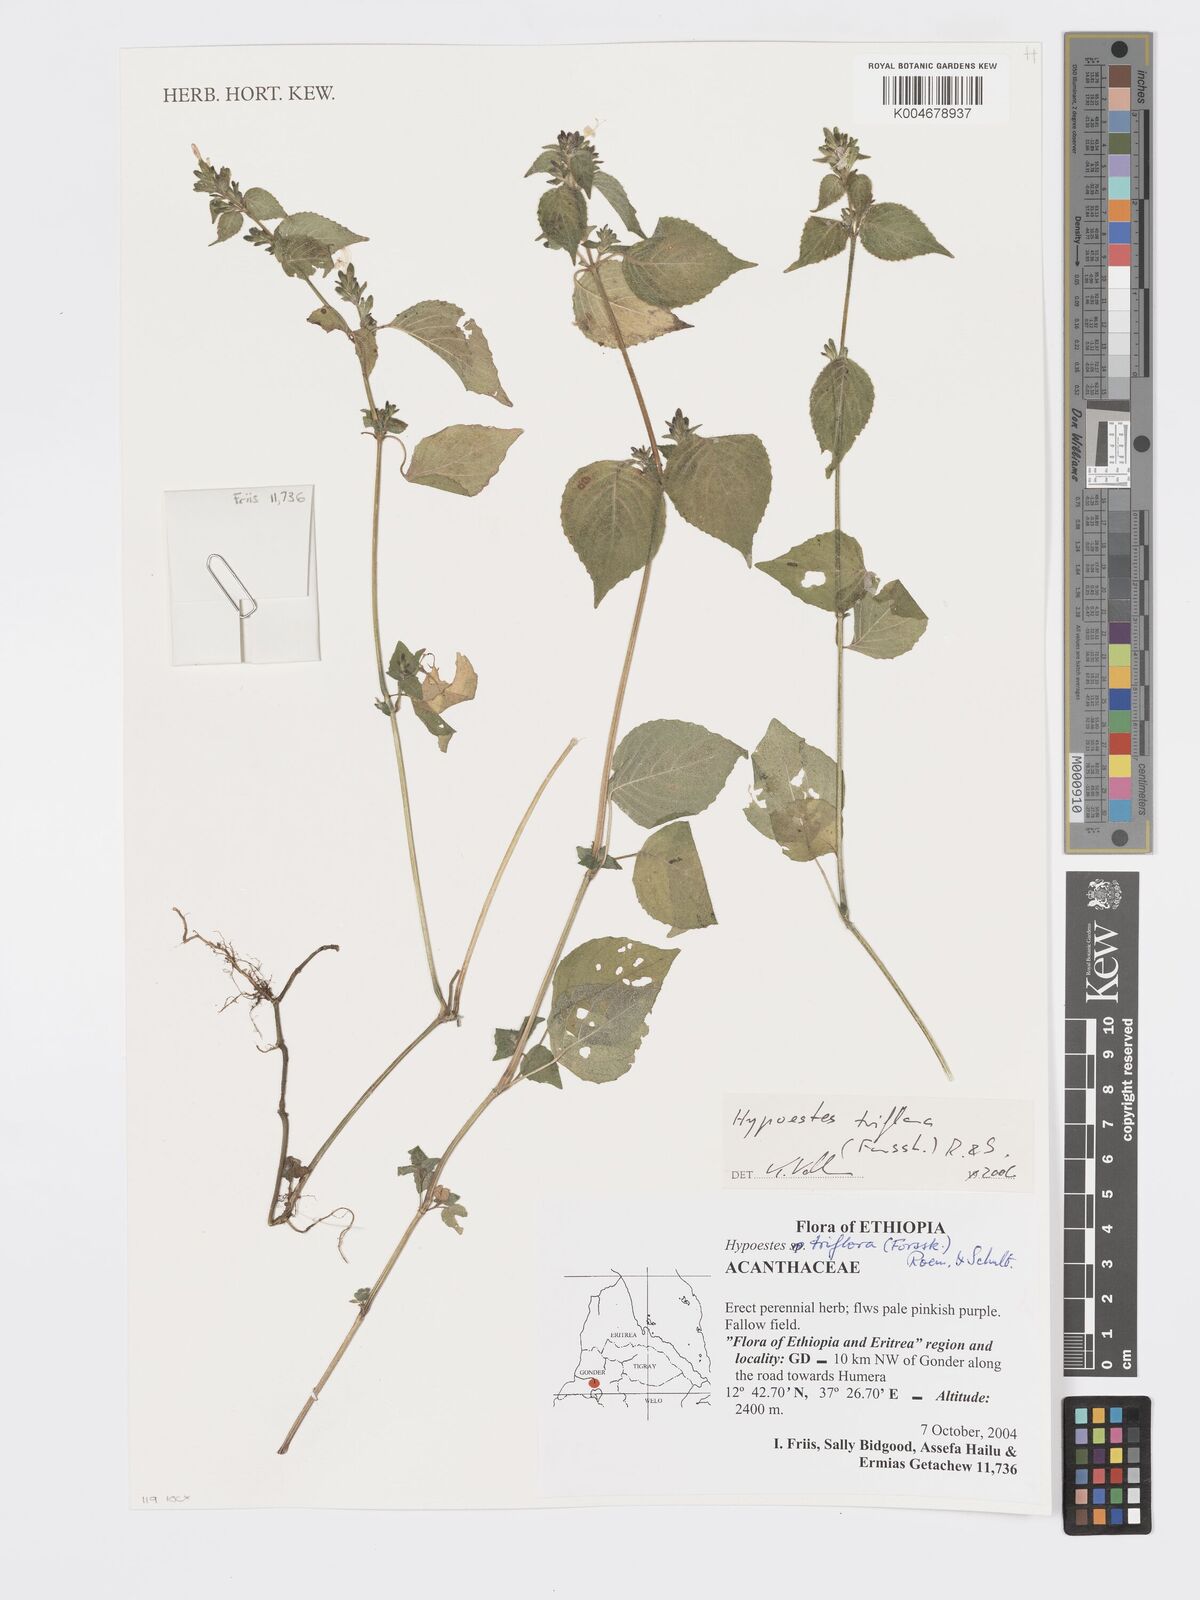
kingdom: Plantae
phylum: Tracheophyta
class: Magnoliopsida
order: Lamiales
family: Acanthaceae
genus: Hypoestes
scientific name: Hypoestes triflora
